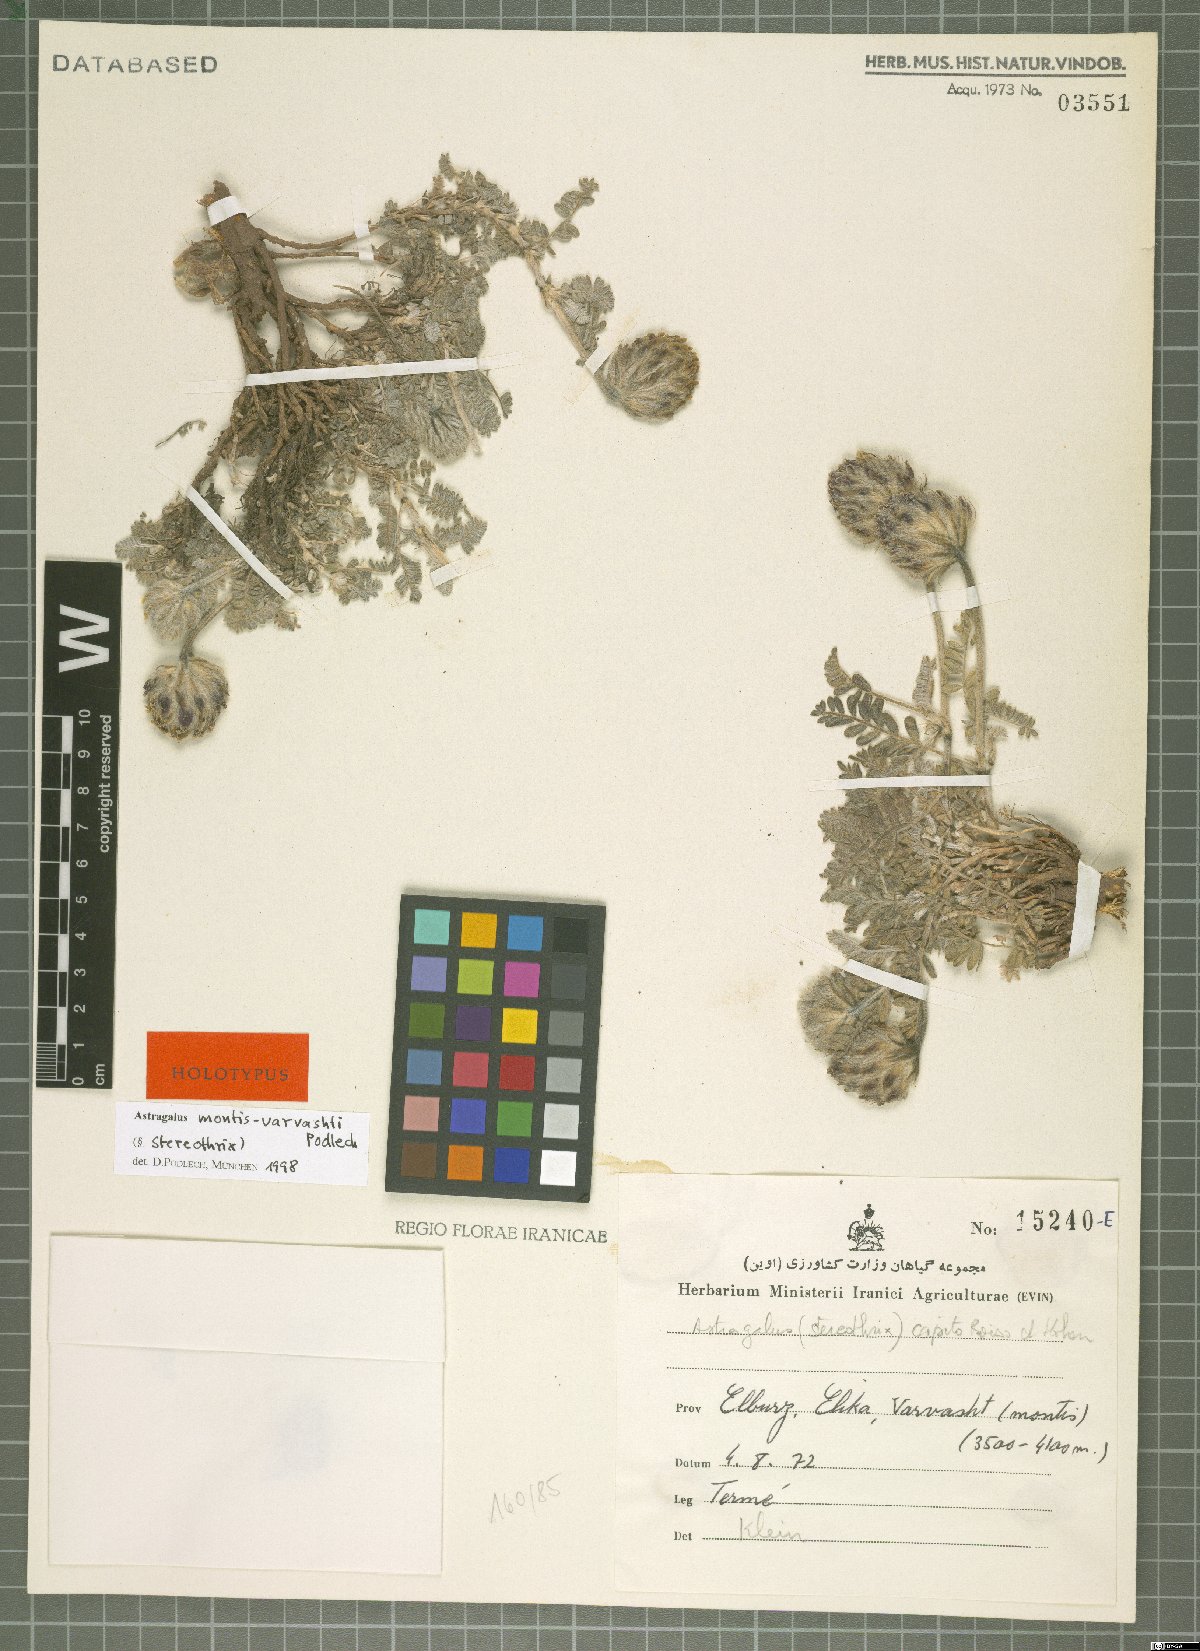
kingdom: Plantae
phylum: Tracheophyta
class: Magnoliopsida
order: Fabales
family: Fabaceae
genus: Astragalus
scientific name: Astragalus montis-varvashti
